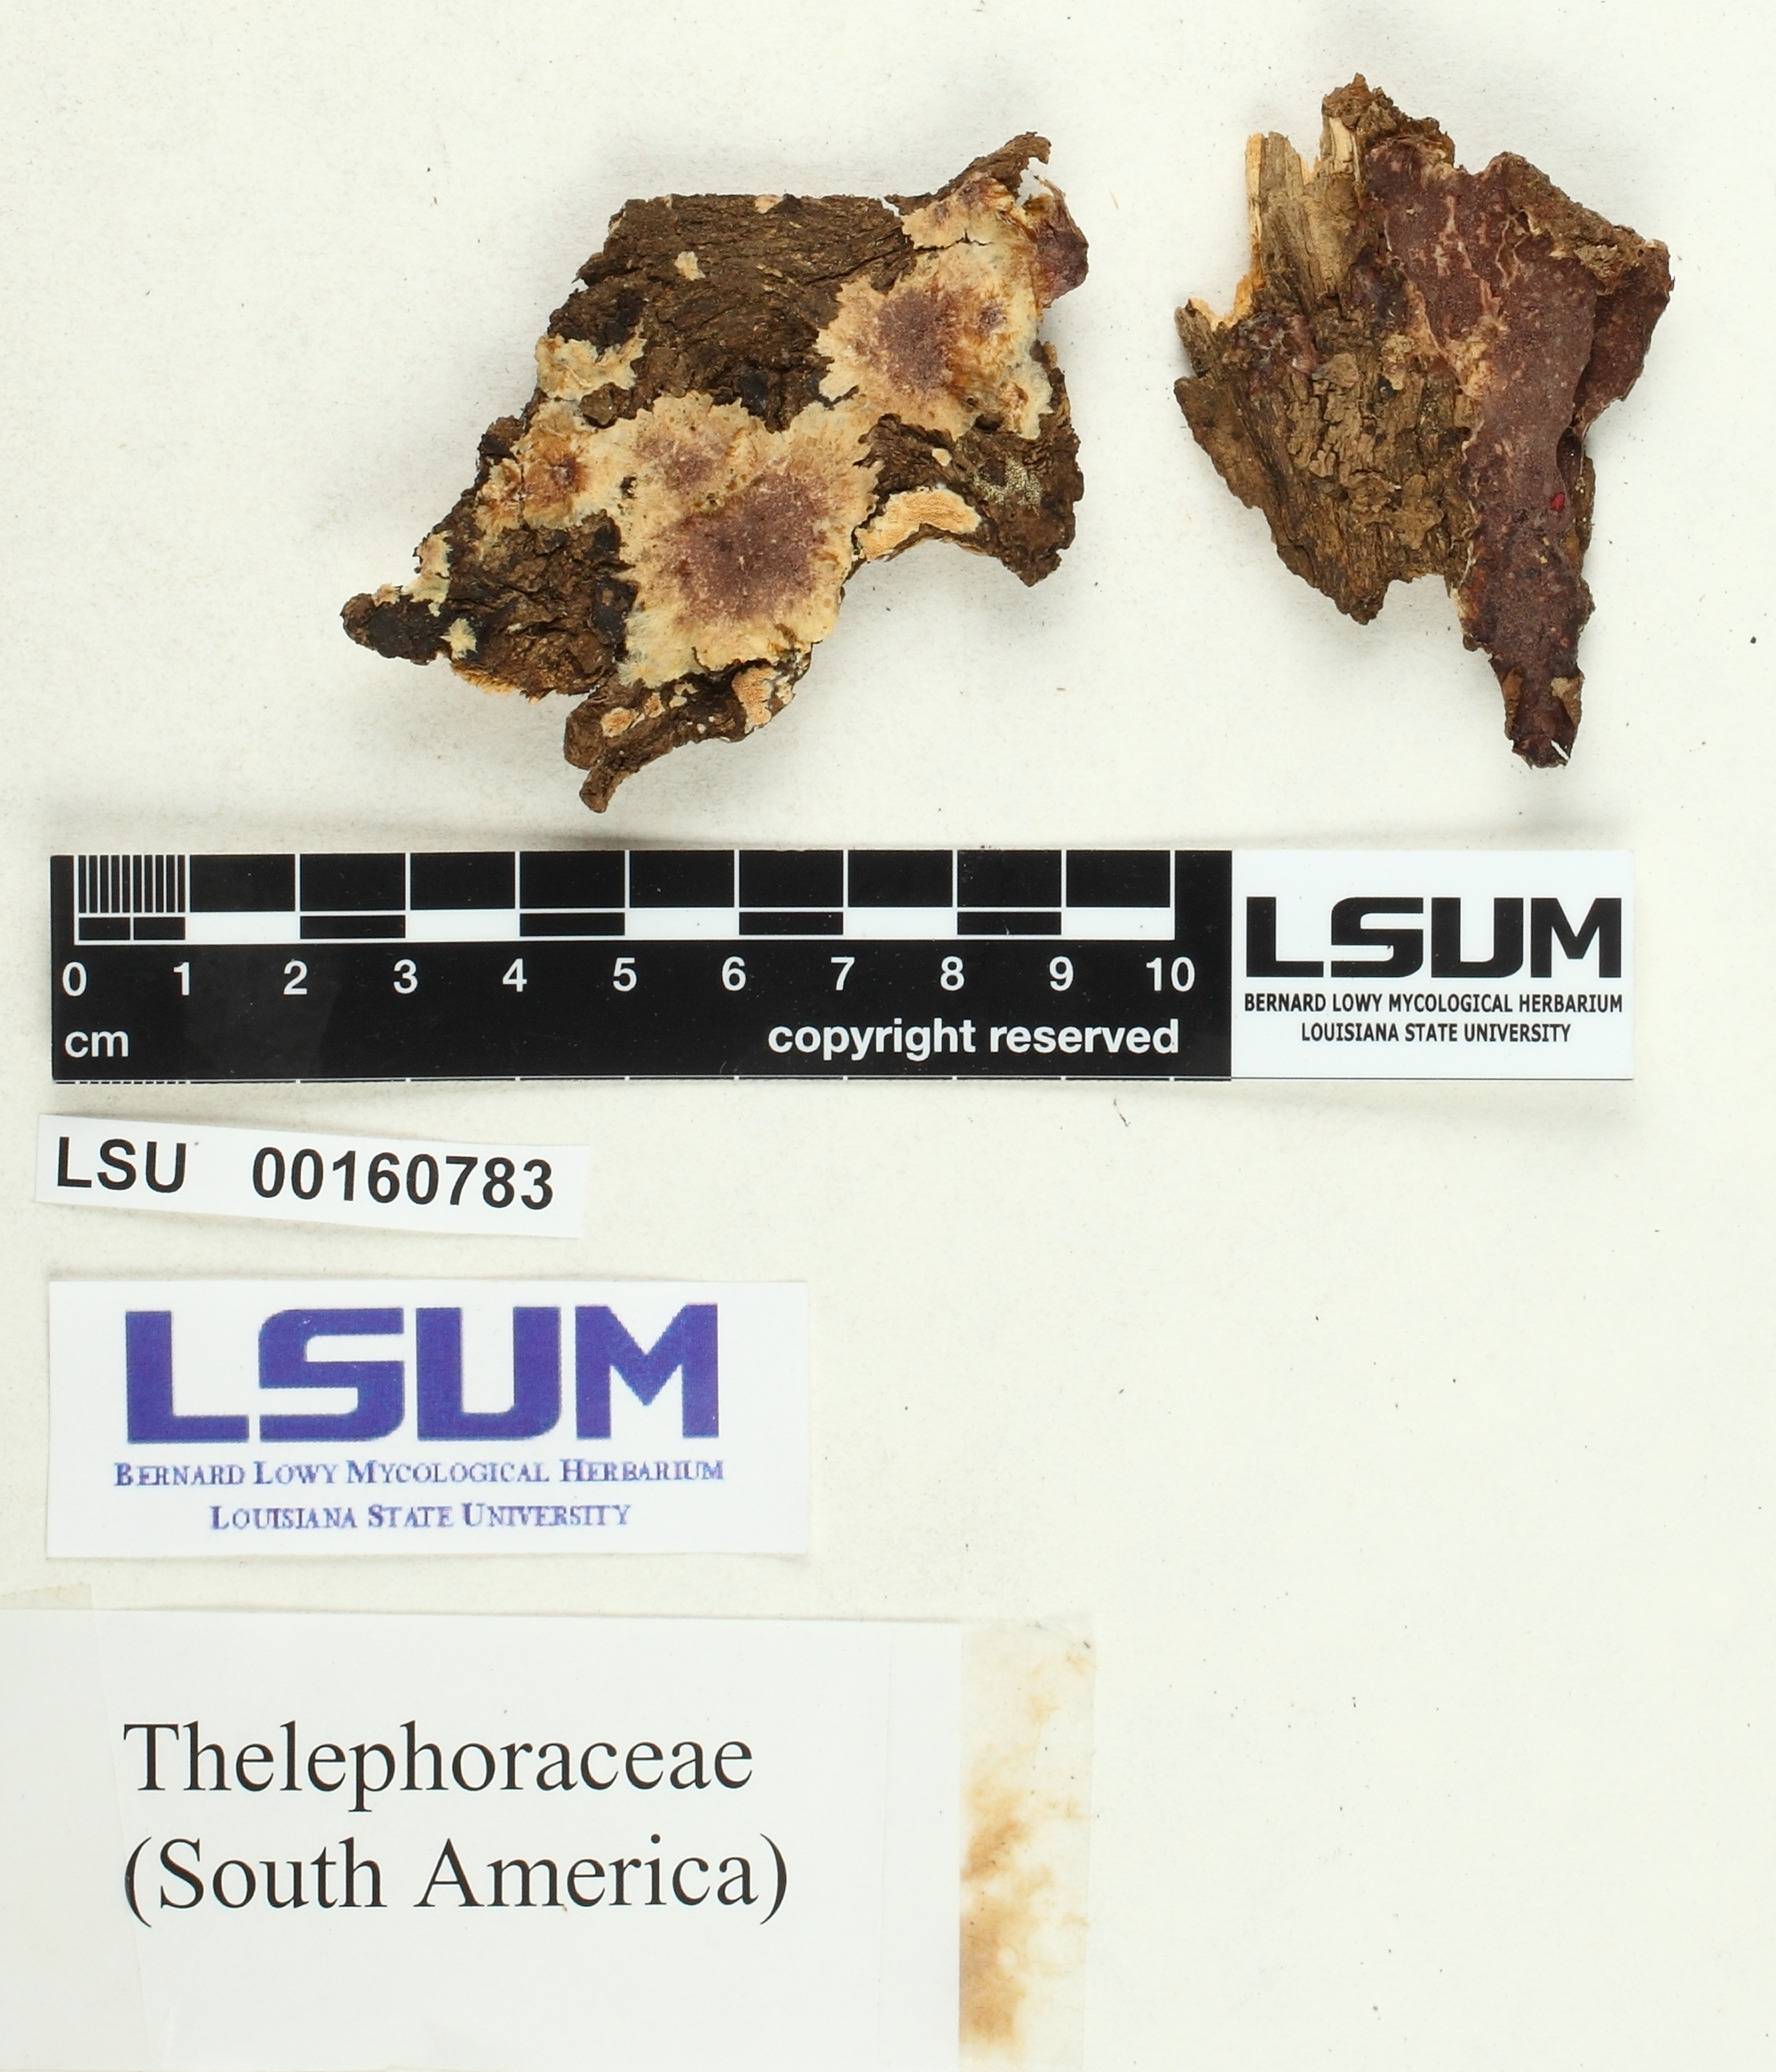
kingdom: Fungi
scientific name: Fungi
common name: Fungi
